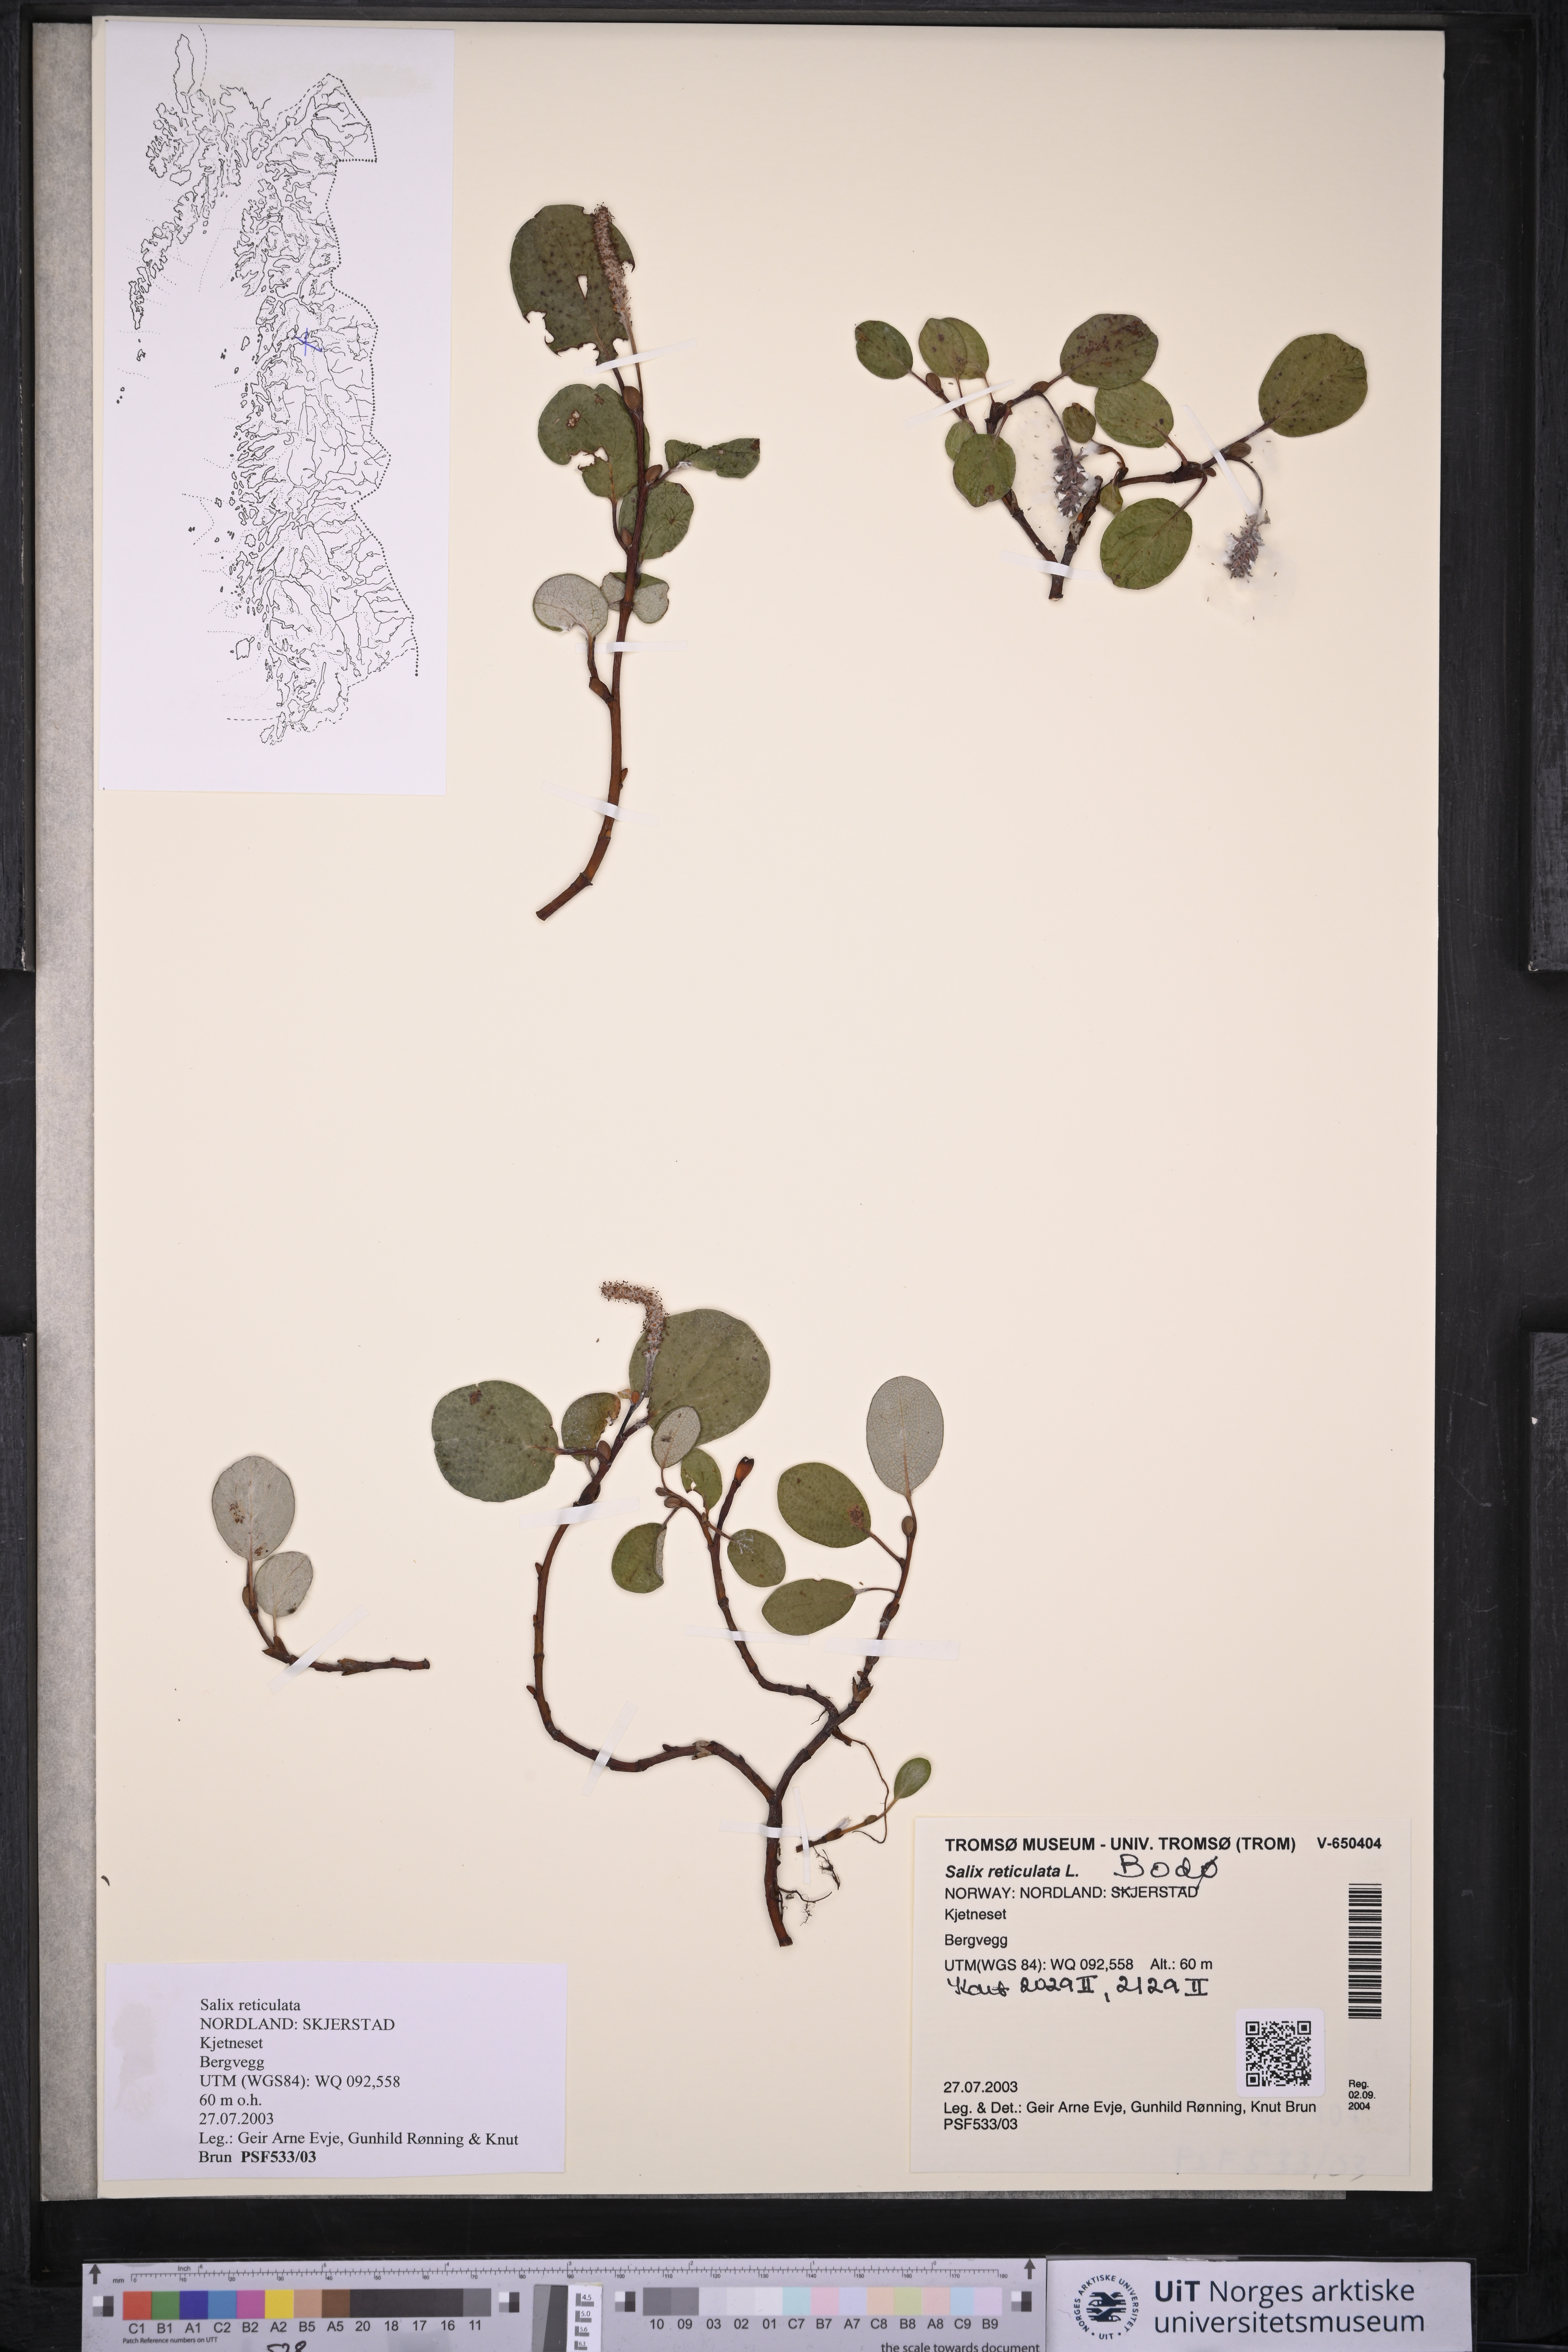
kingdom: Plantae
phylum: Tracheophyta
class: Magnoliopsida
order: Malpighiales
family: Salicaceae
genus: Salix
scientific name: Salix reticulata
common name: Net-leaved willow
